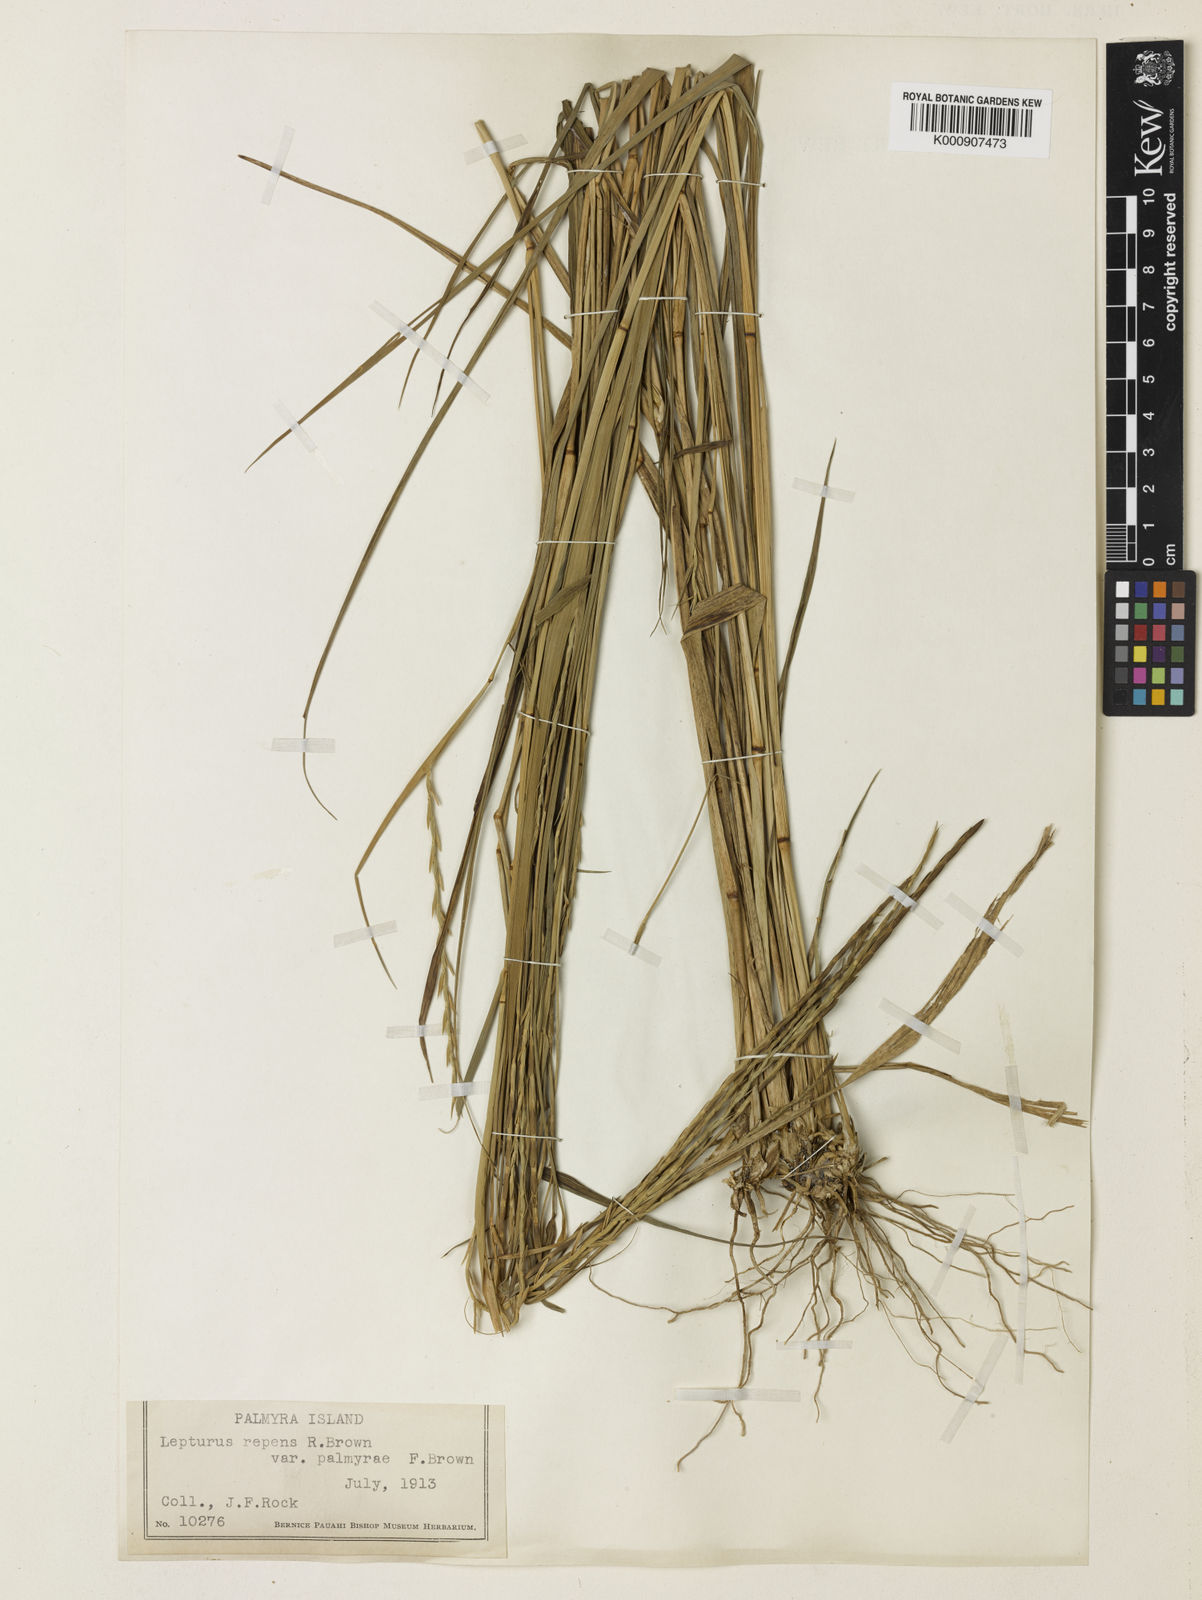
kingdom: Plantae
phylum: Tracheophyta
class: Liliopsida
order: Poales
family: Poaceae
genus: Lepturus
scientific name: Lepturus repens
